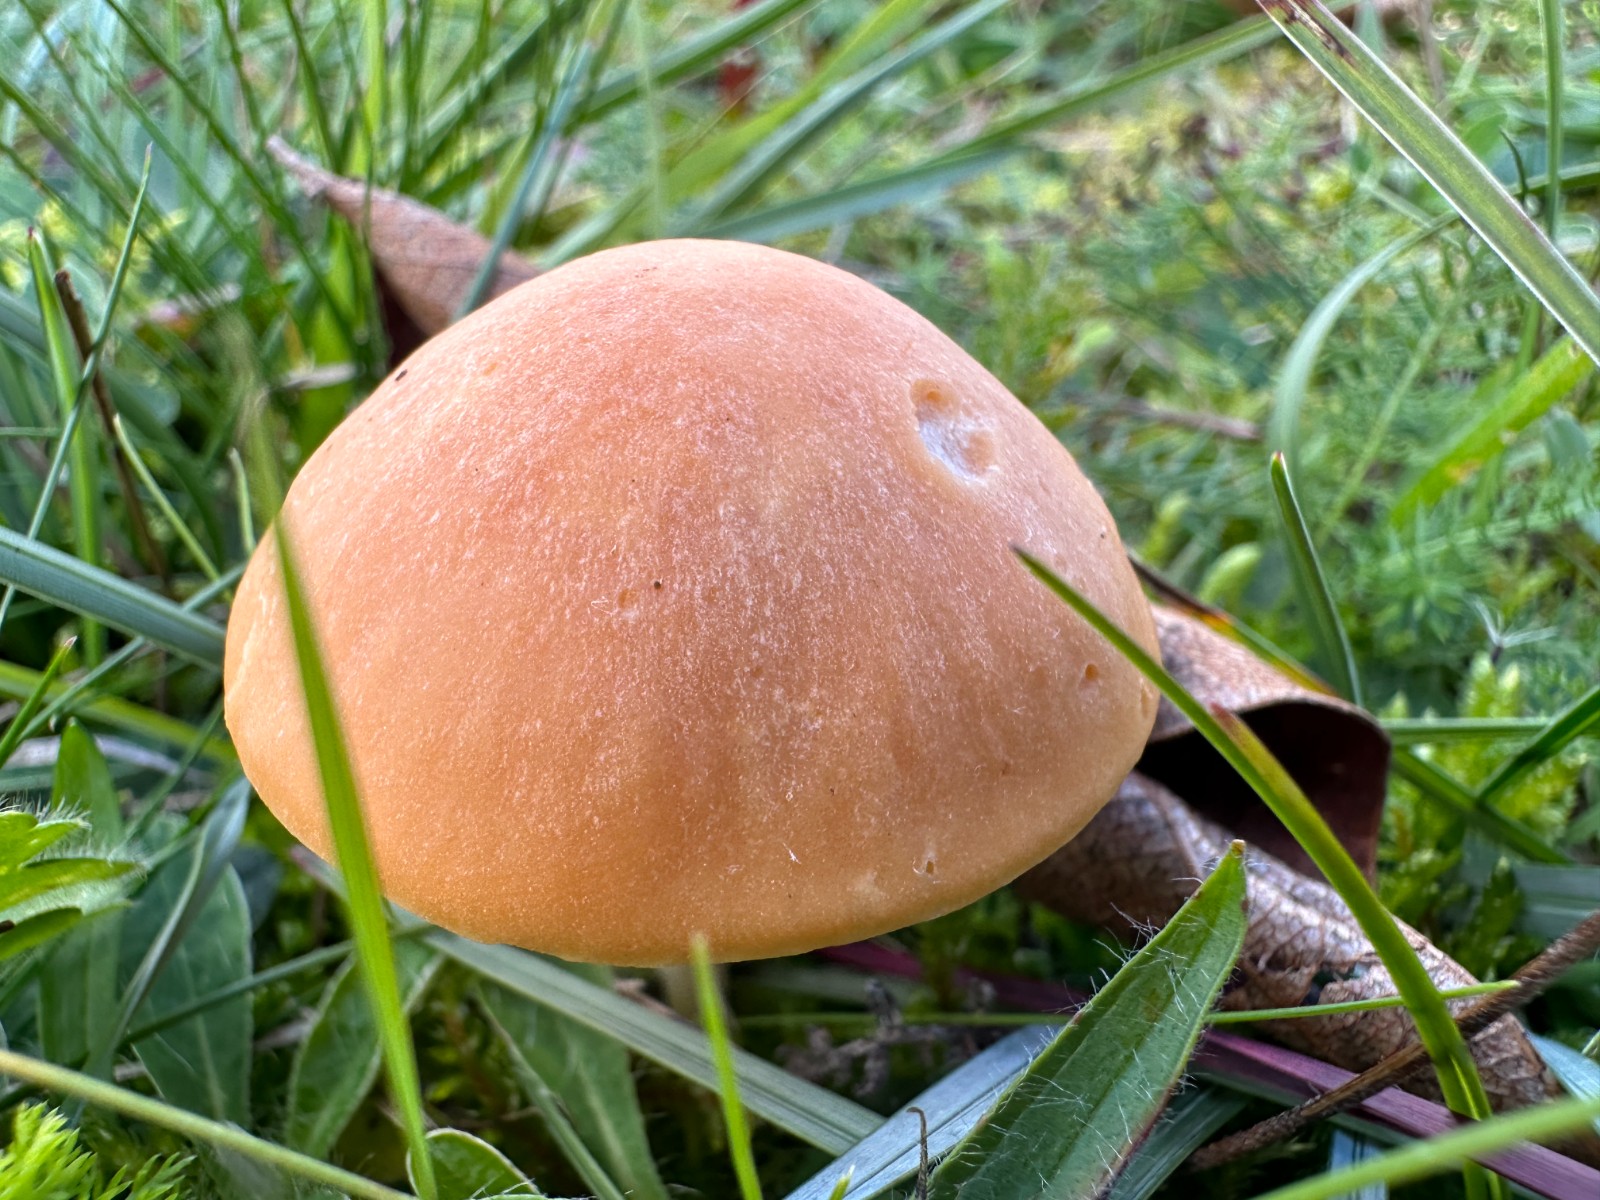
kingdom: Fungi
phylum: Basidiomycota
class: Agaricomycetes
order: Agaricales
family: Hygrophoraceae
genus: Cuphophyllus
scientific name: Cuphophyllus pratensis
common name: eng-vokshat
